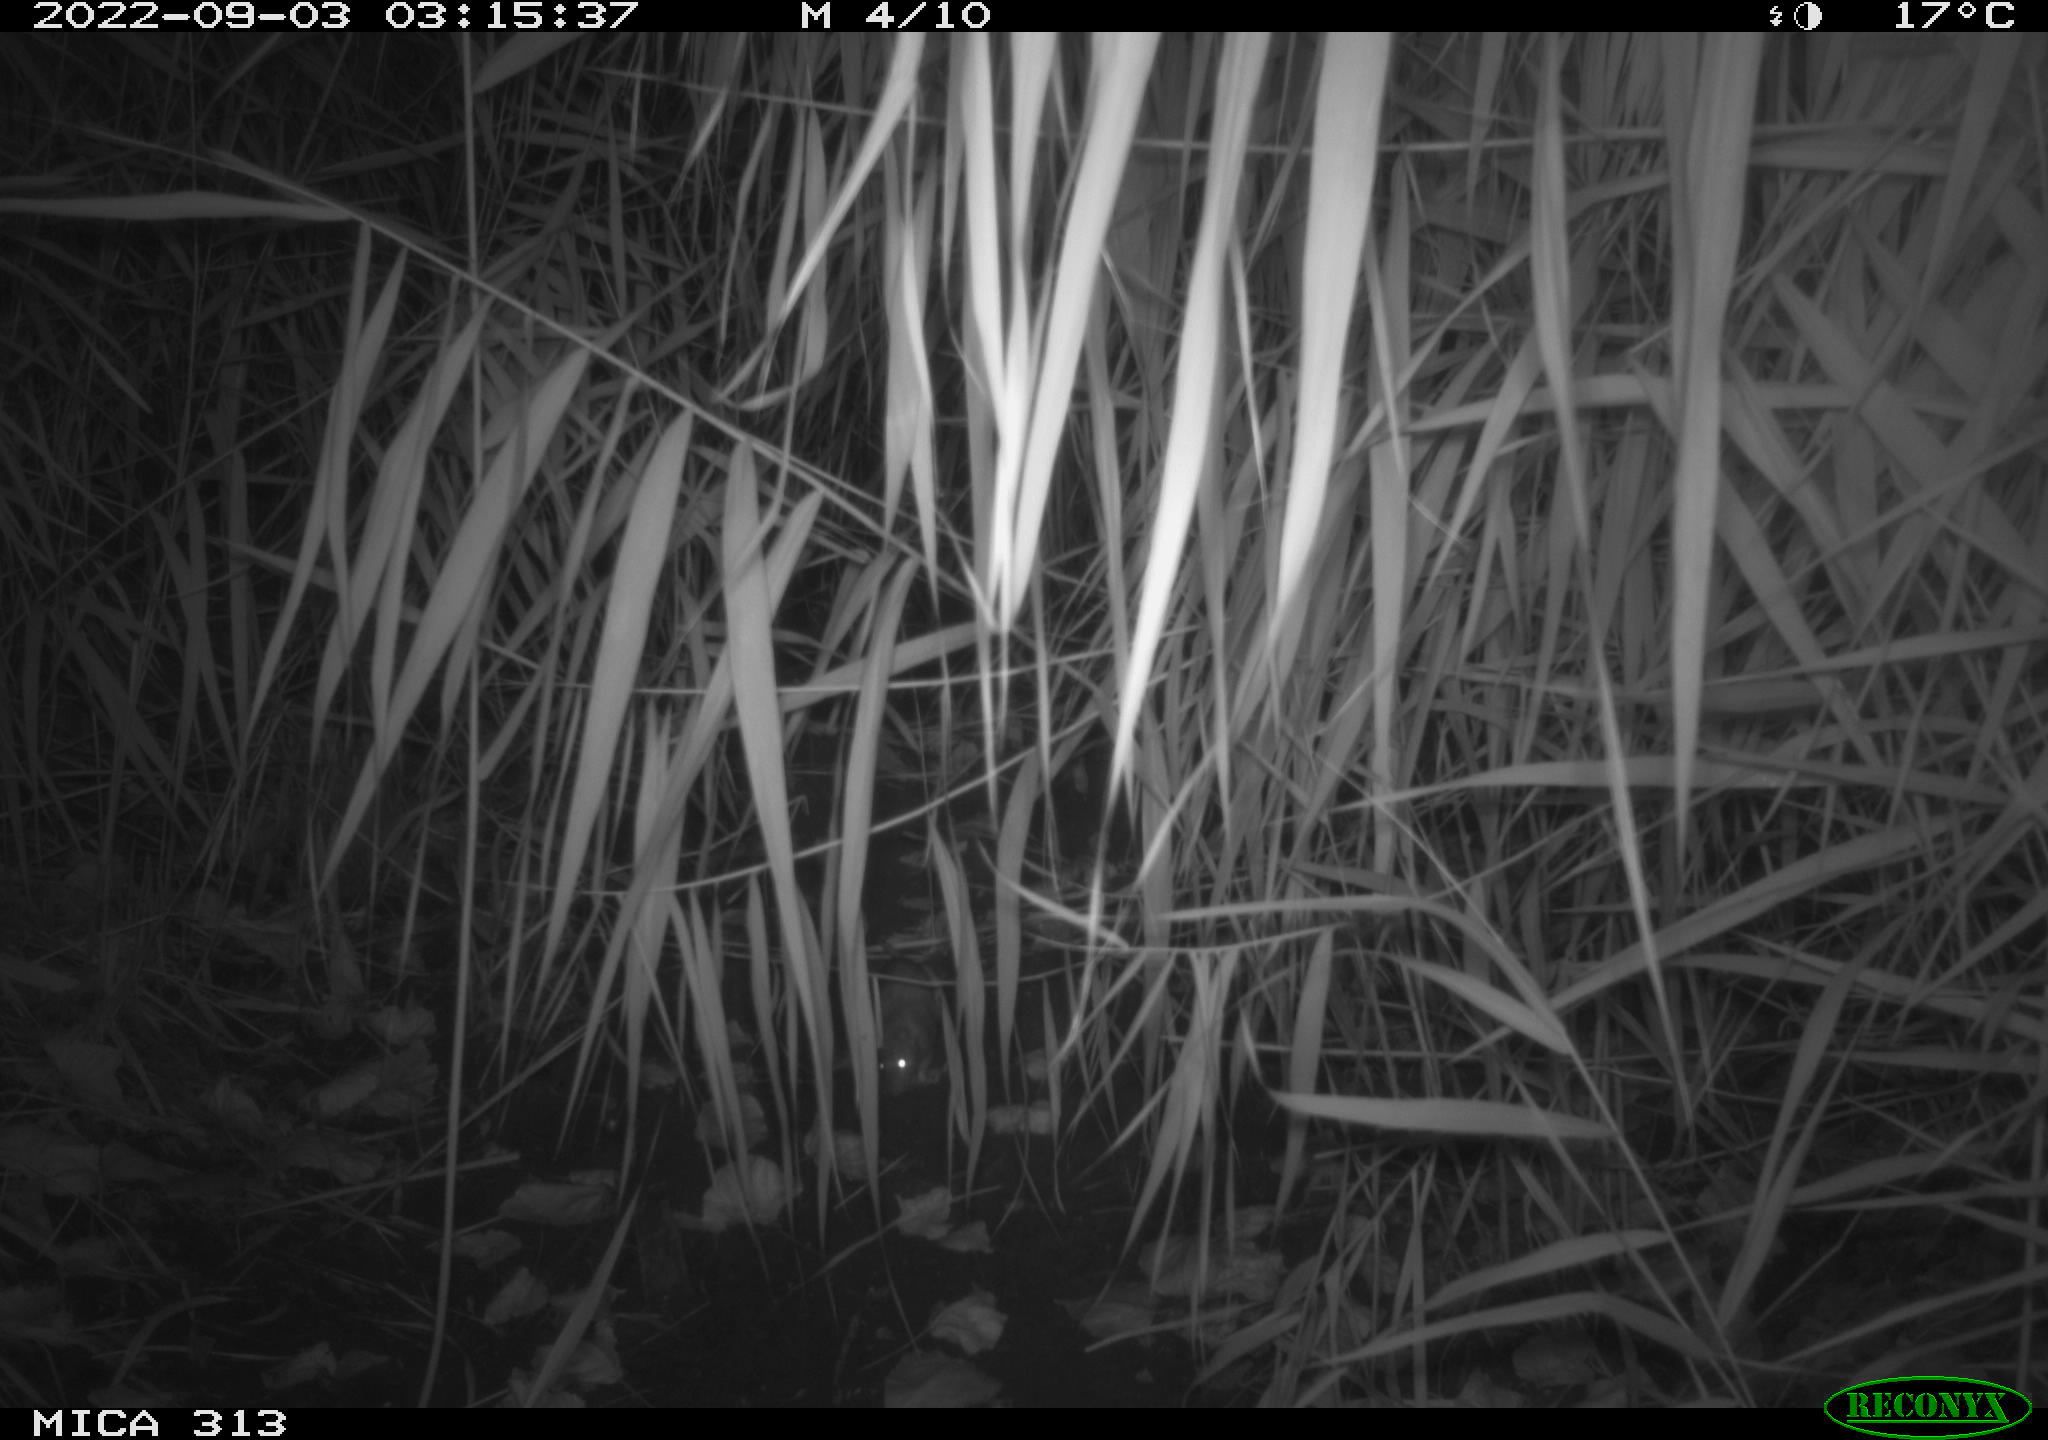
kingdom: Animalia
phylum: Chordata
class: Mammalia
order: Rodentia
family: Muridae
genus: Rattus
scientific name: Rattus norvegicus
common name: Brown rat
